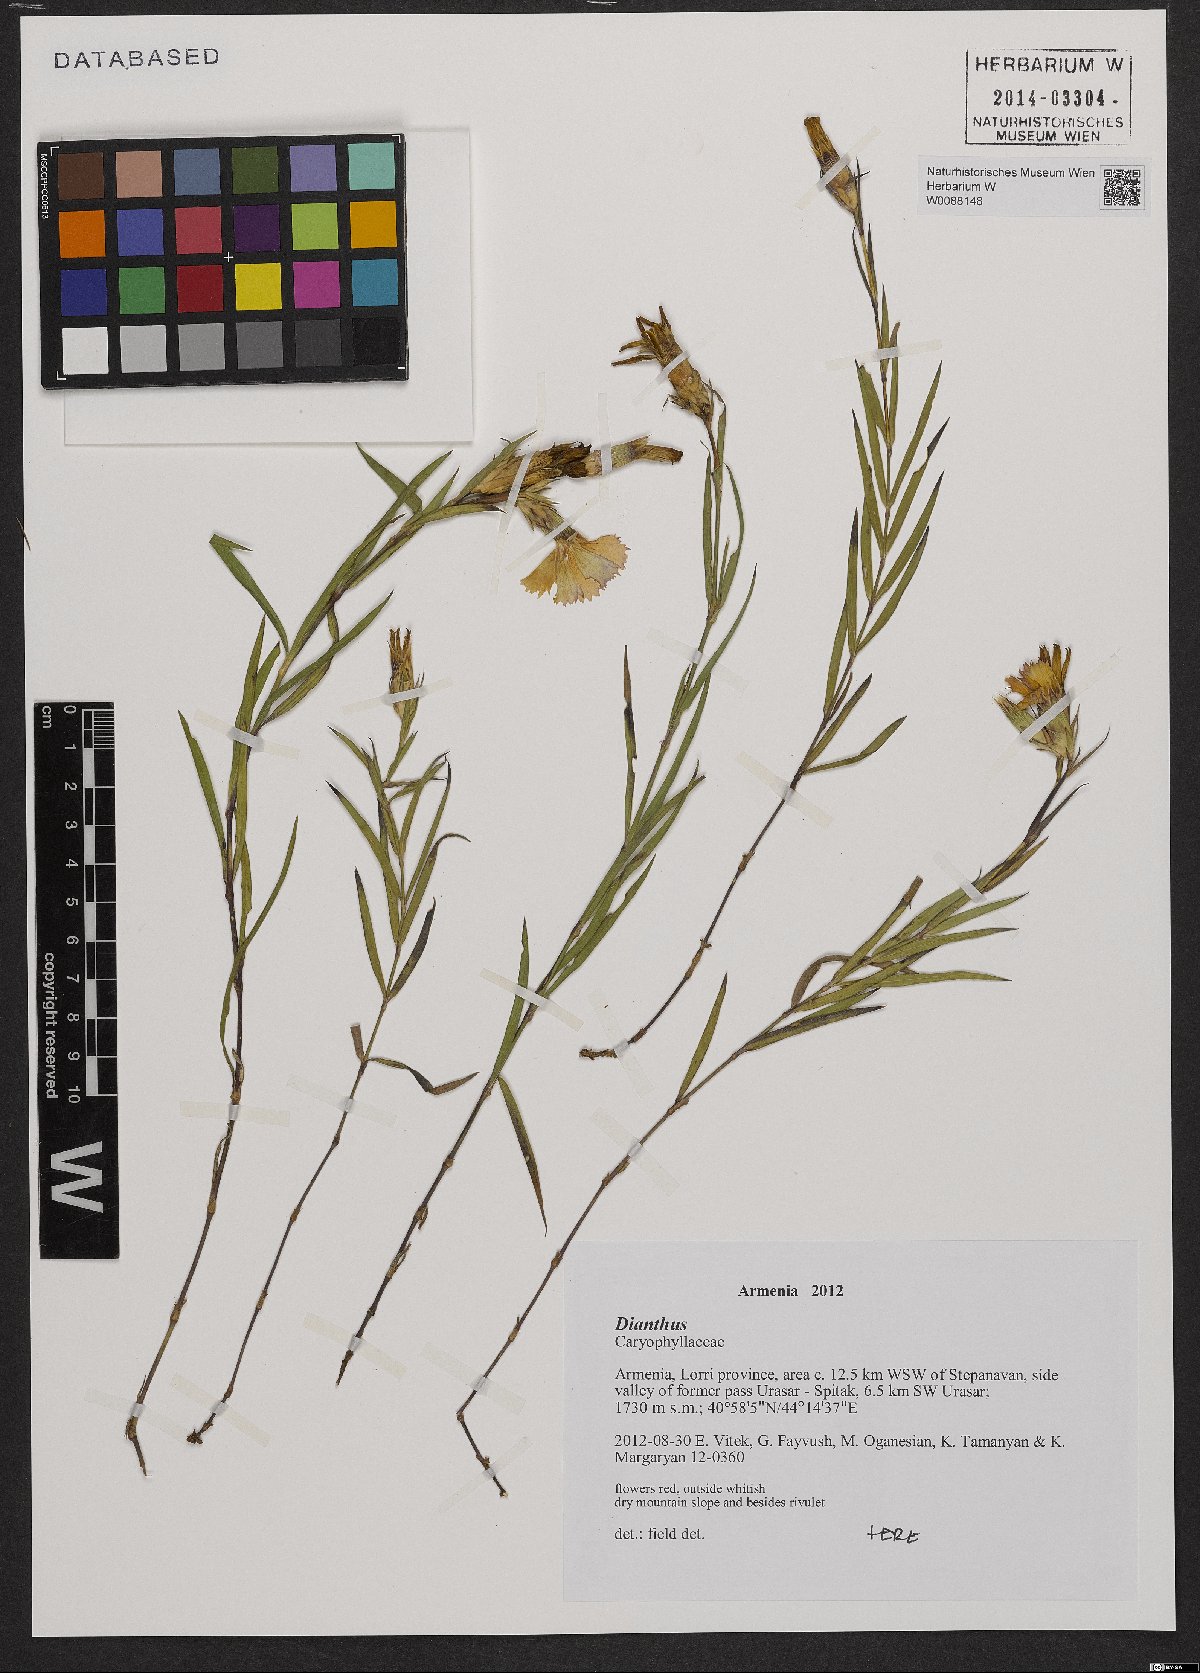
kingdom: Plantae
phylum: Tracheophyta
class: Magnoliopsida
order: Caryophyllales
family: Caryophyllaceae
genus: Dianthus
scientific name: Dianthus
